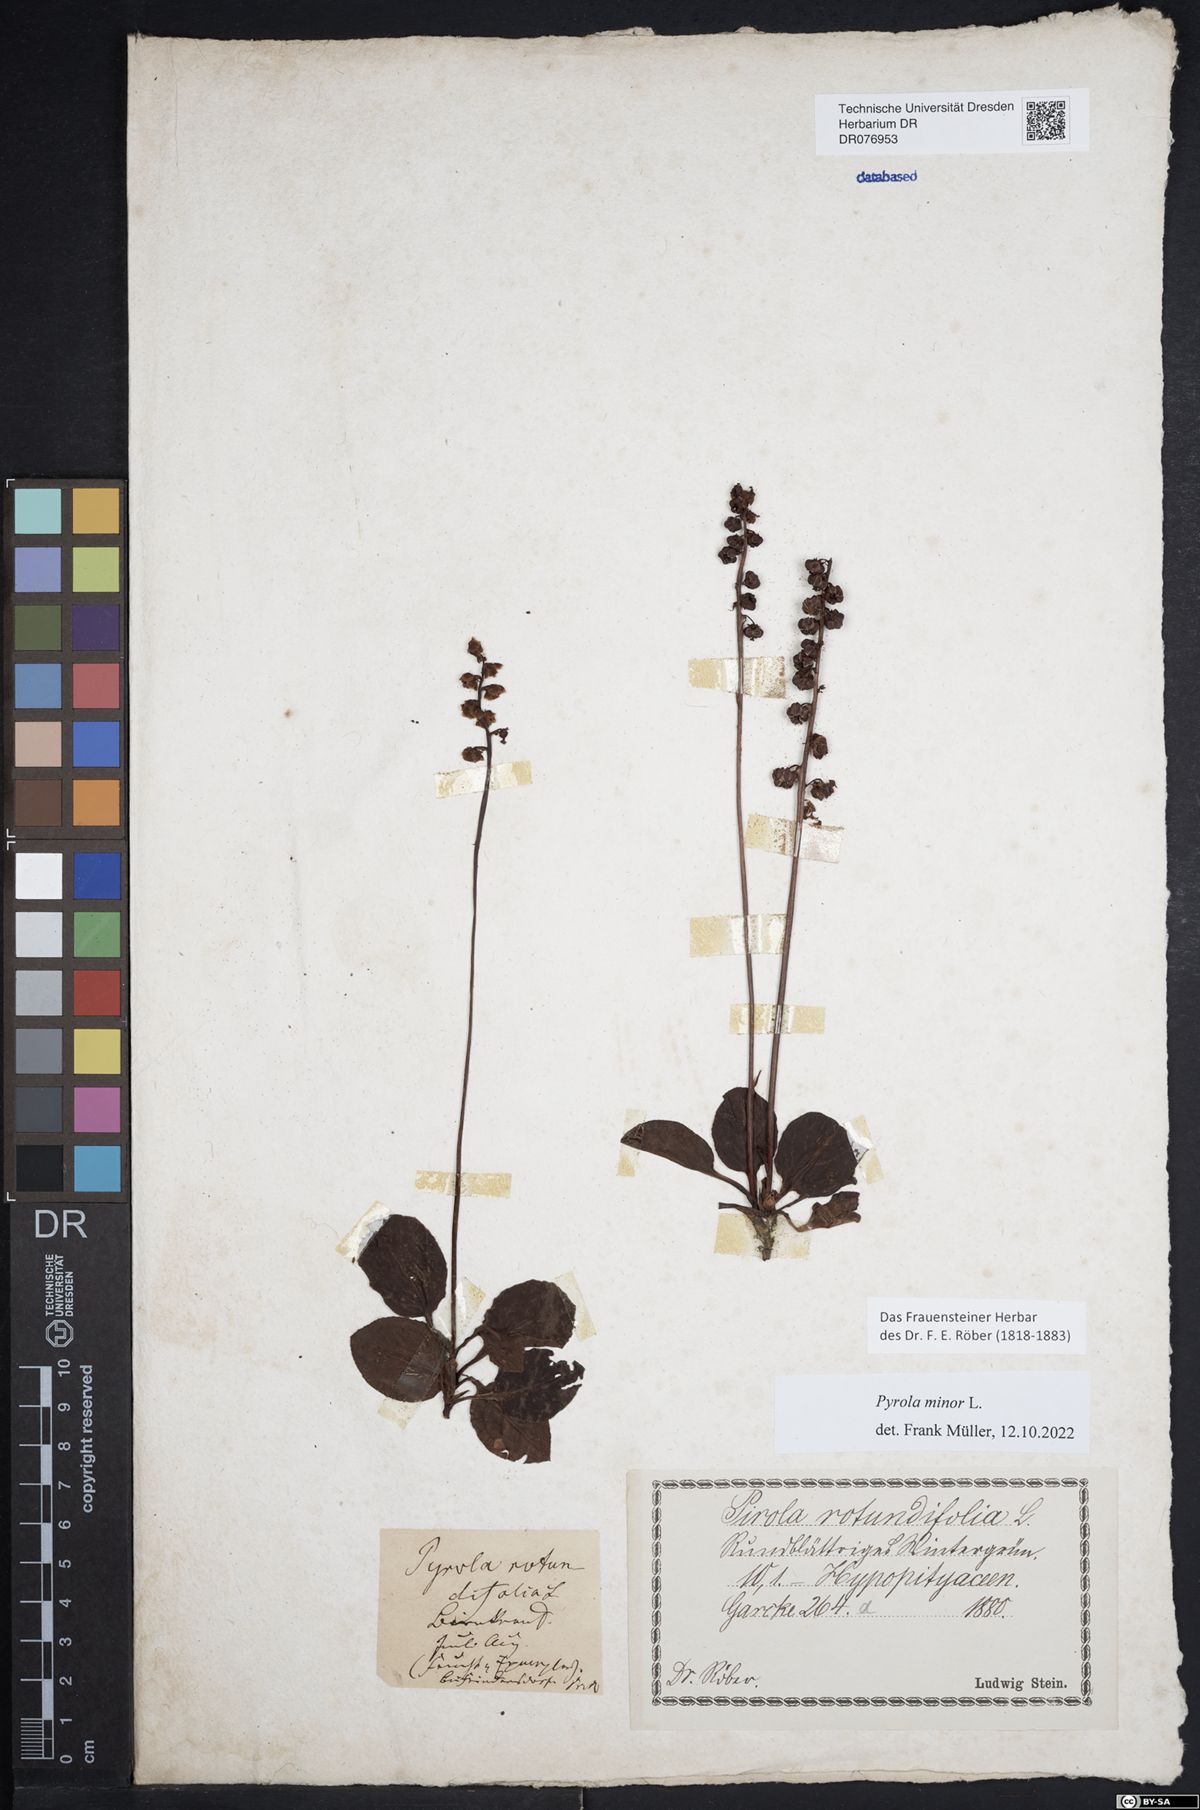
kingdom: Plantae
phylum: Tracheophyta
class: Magnoliopsida
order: Ericales
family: Ericaceae
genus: Pyrola
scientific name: Pyrola minor
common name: Common wintergreen
